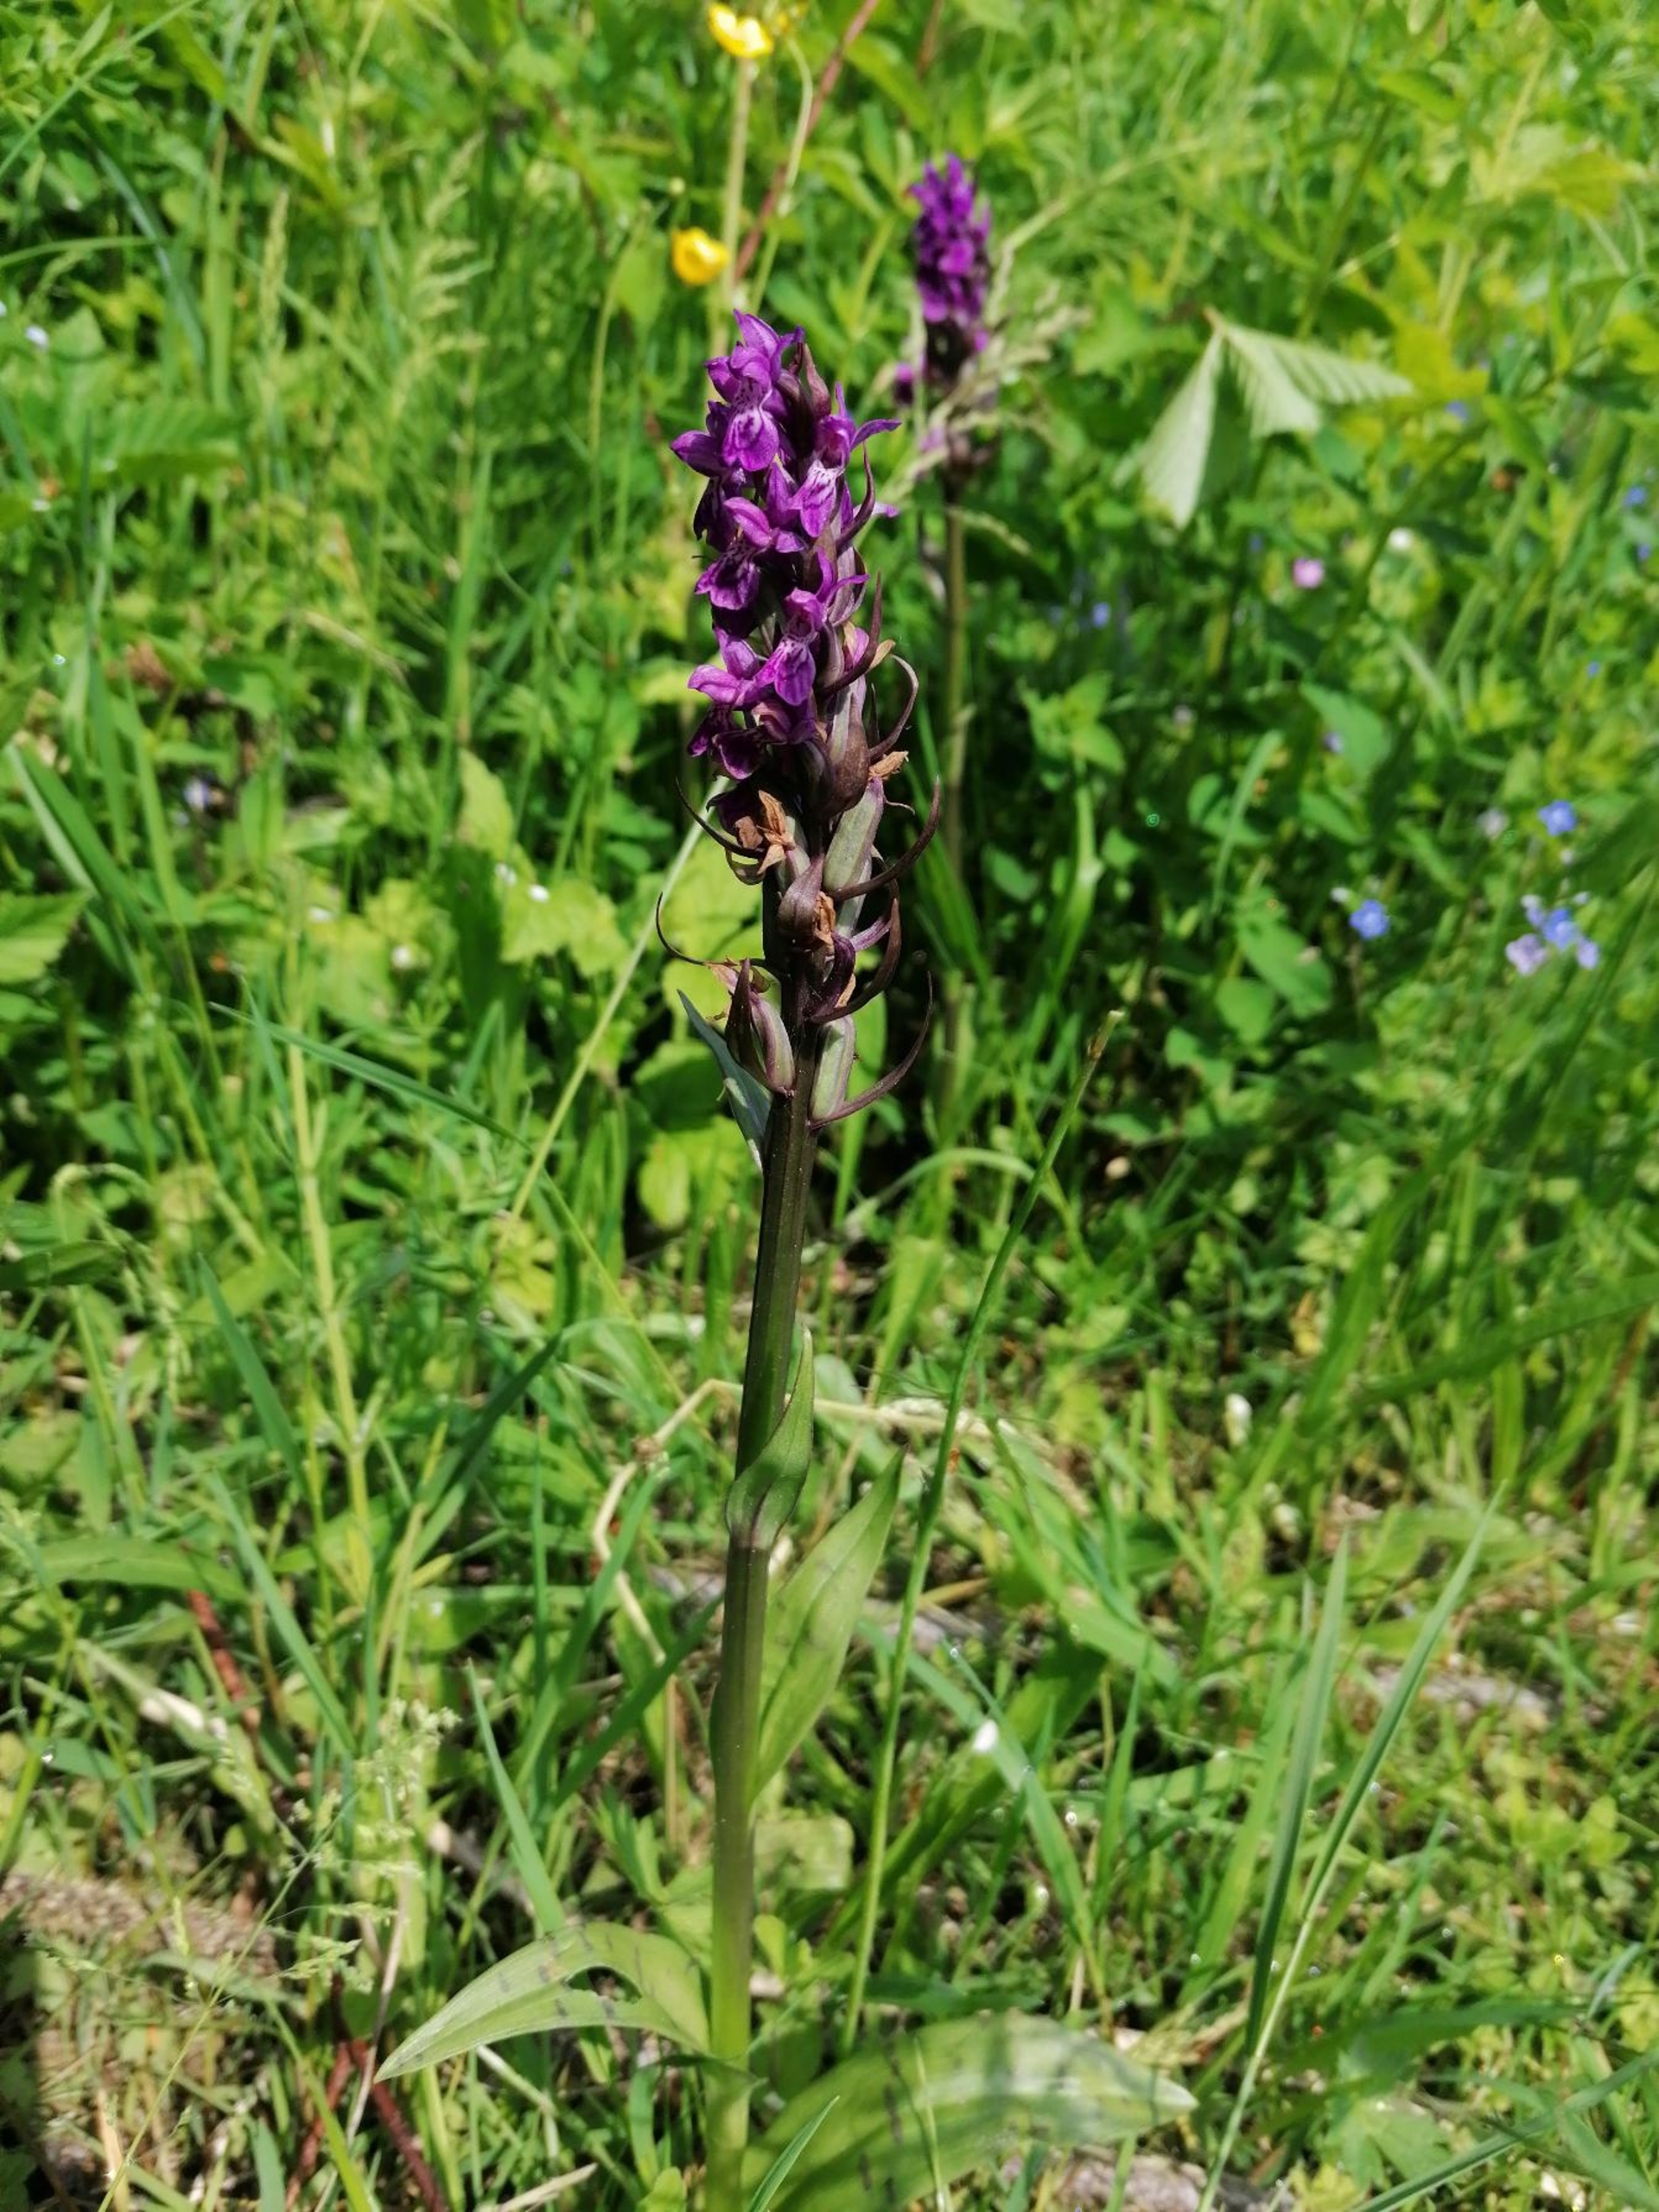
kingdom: Plantae
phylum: Tracheophyta
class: Liliopsida
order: Asparagales
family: Orchidaceae
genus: Dactylorhiza
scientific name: Dactylorhiza majalis
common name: Maj-gøgeurt
